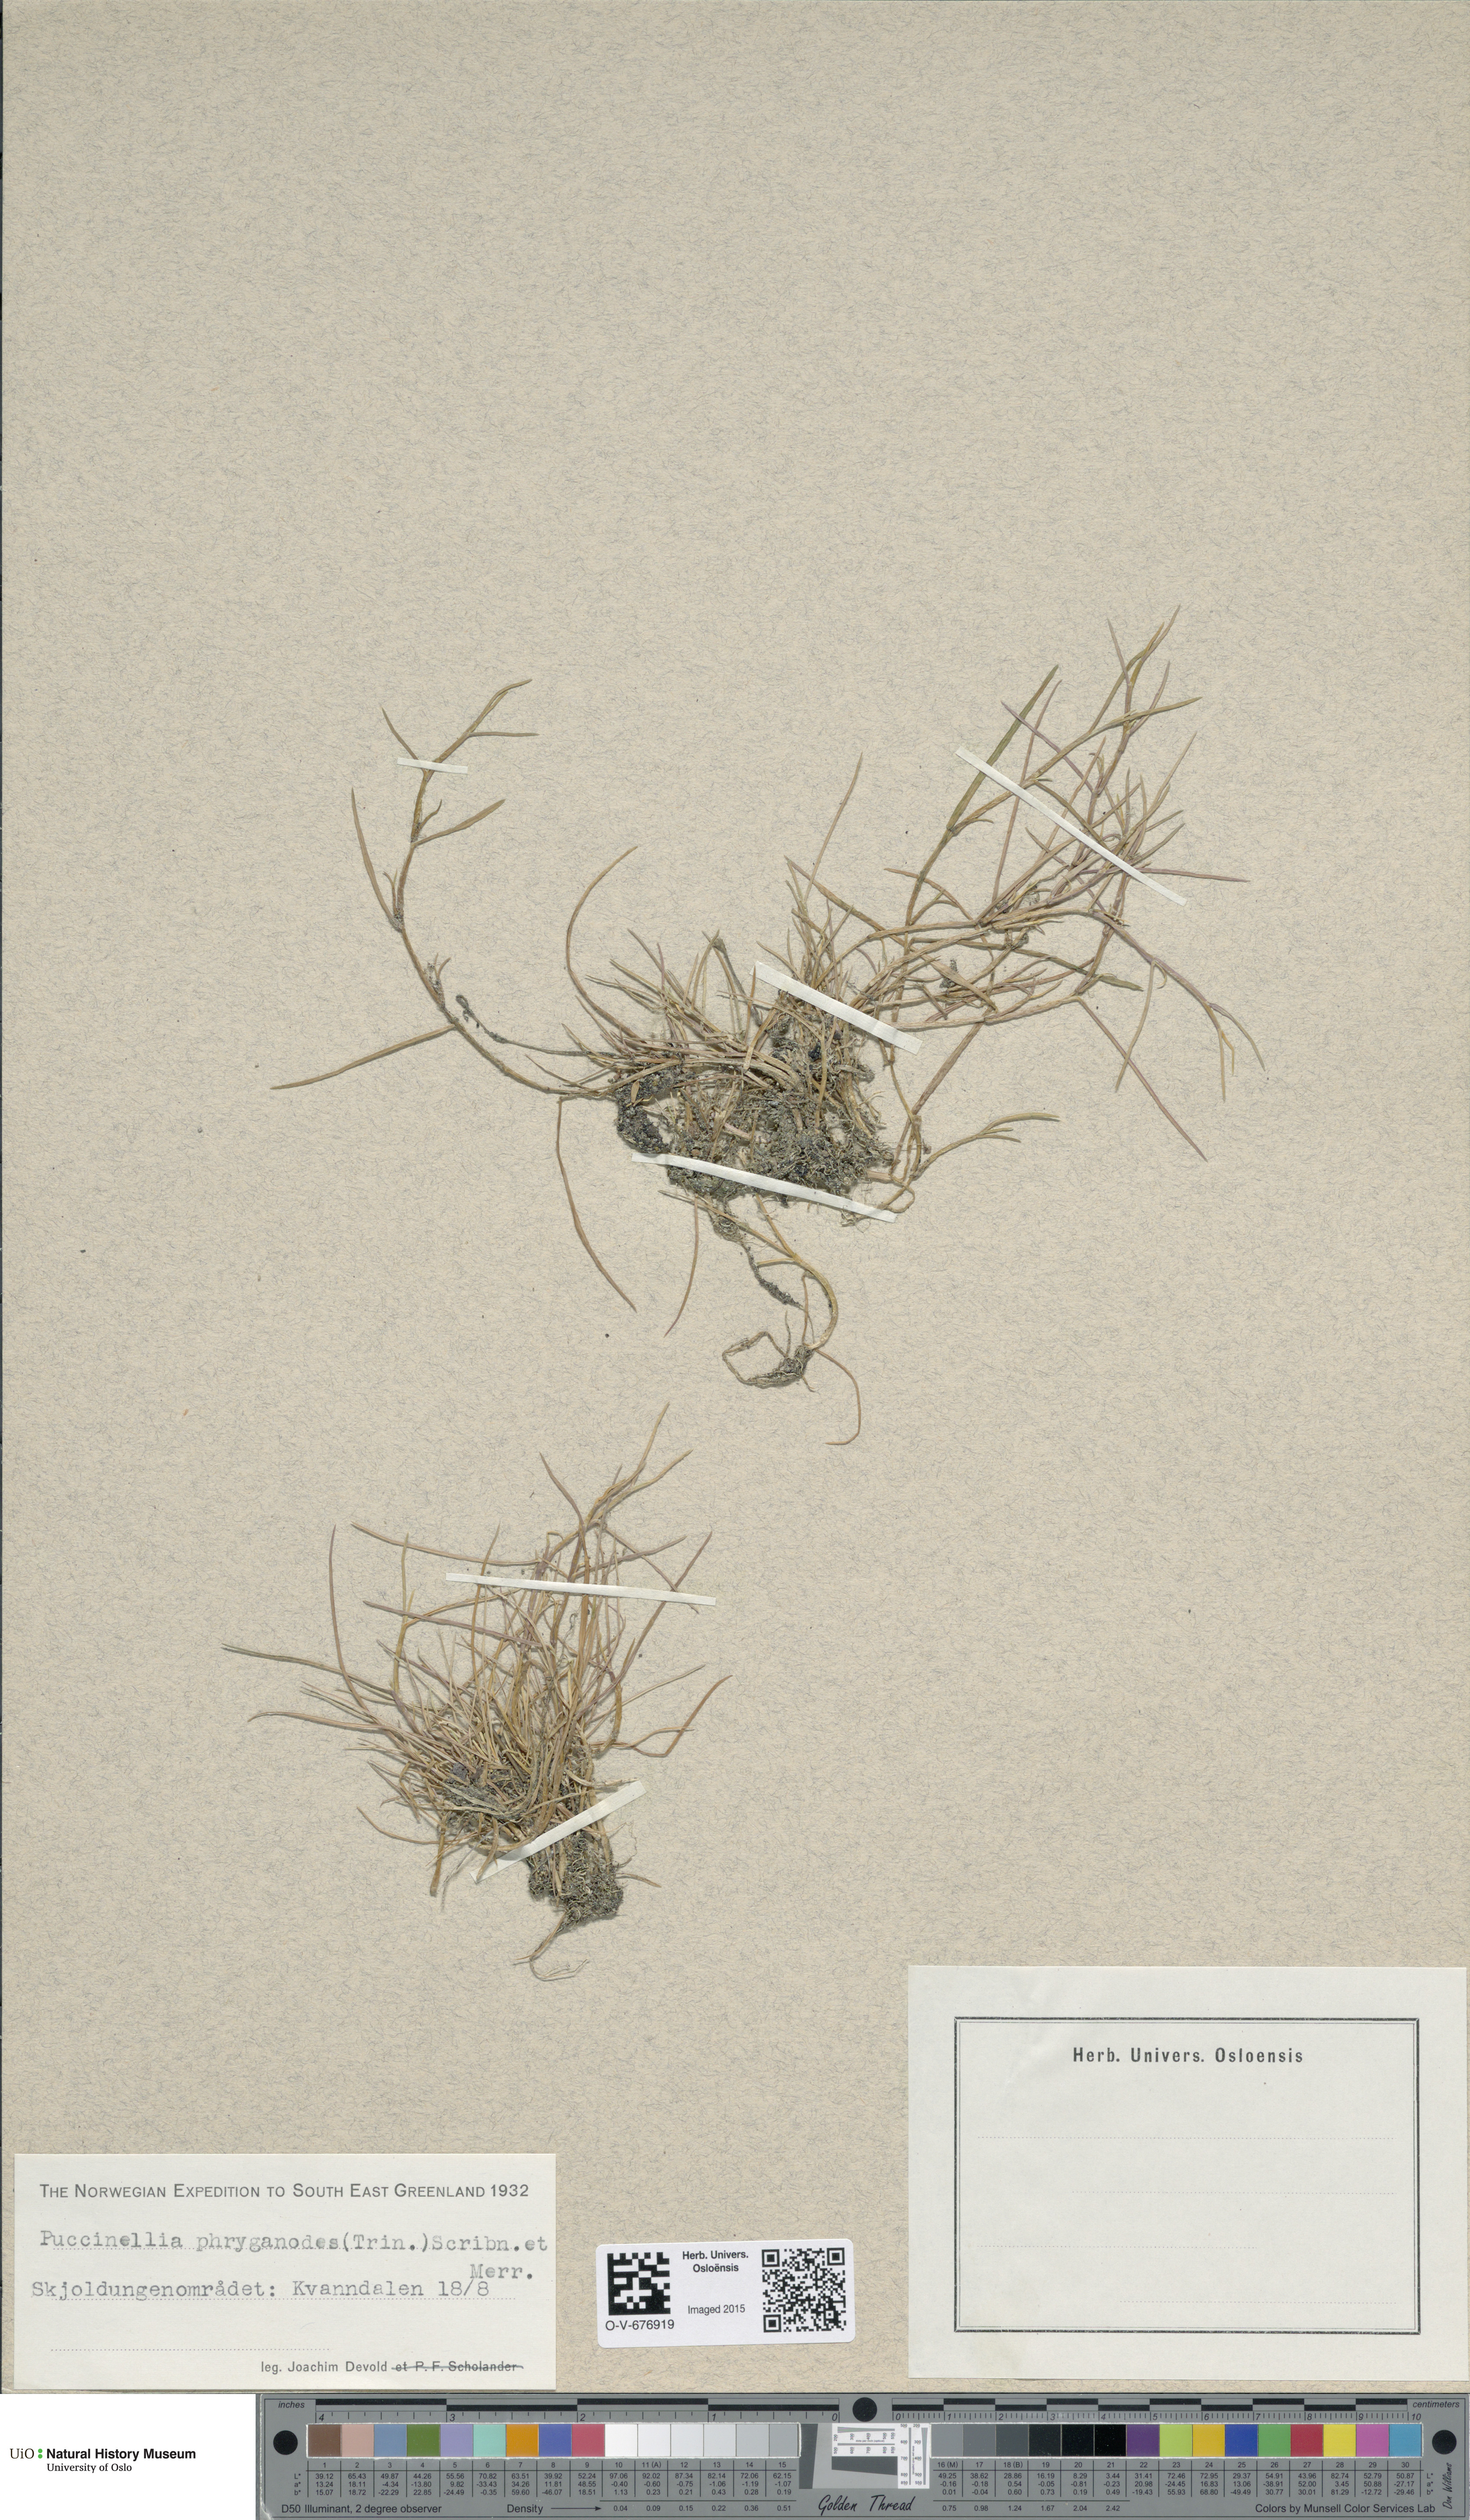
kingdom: Plantae
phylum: Tracheophyta
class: Liliopsida
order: Poales
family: Poaceae
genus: Puccinellia
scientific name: Puccinellia phryganodes
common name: Creeping alkaligrass
